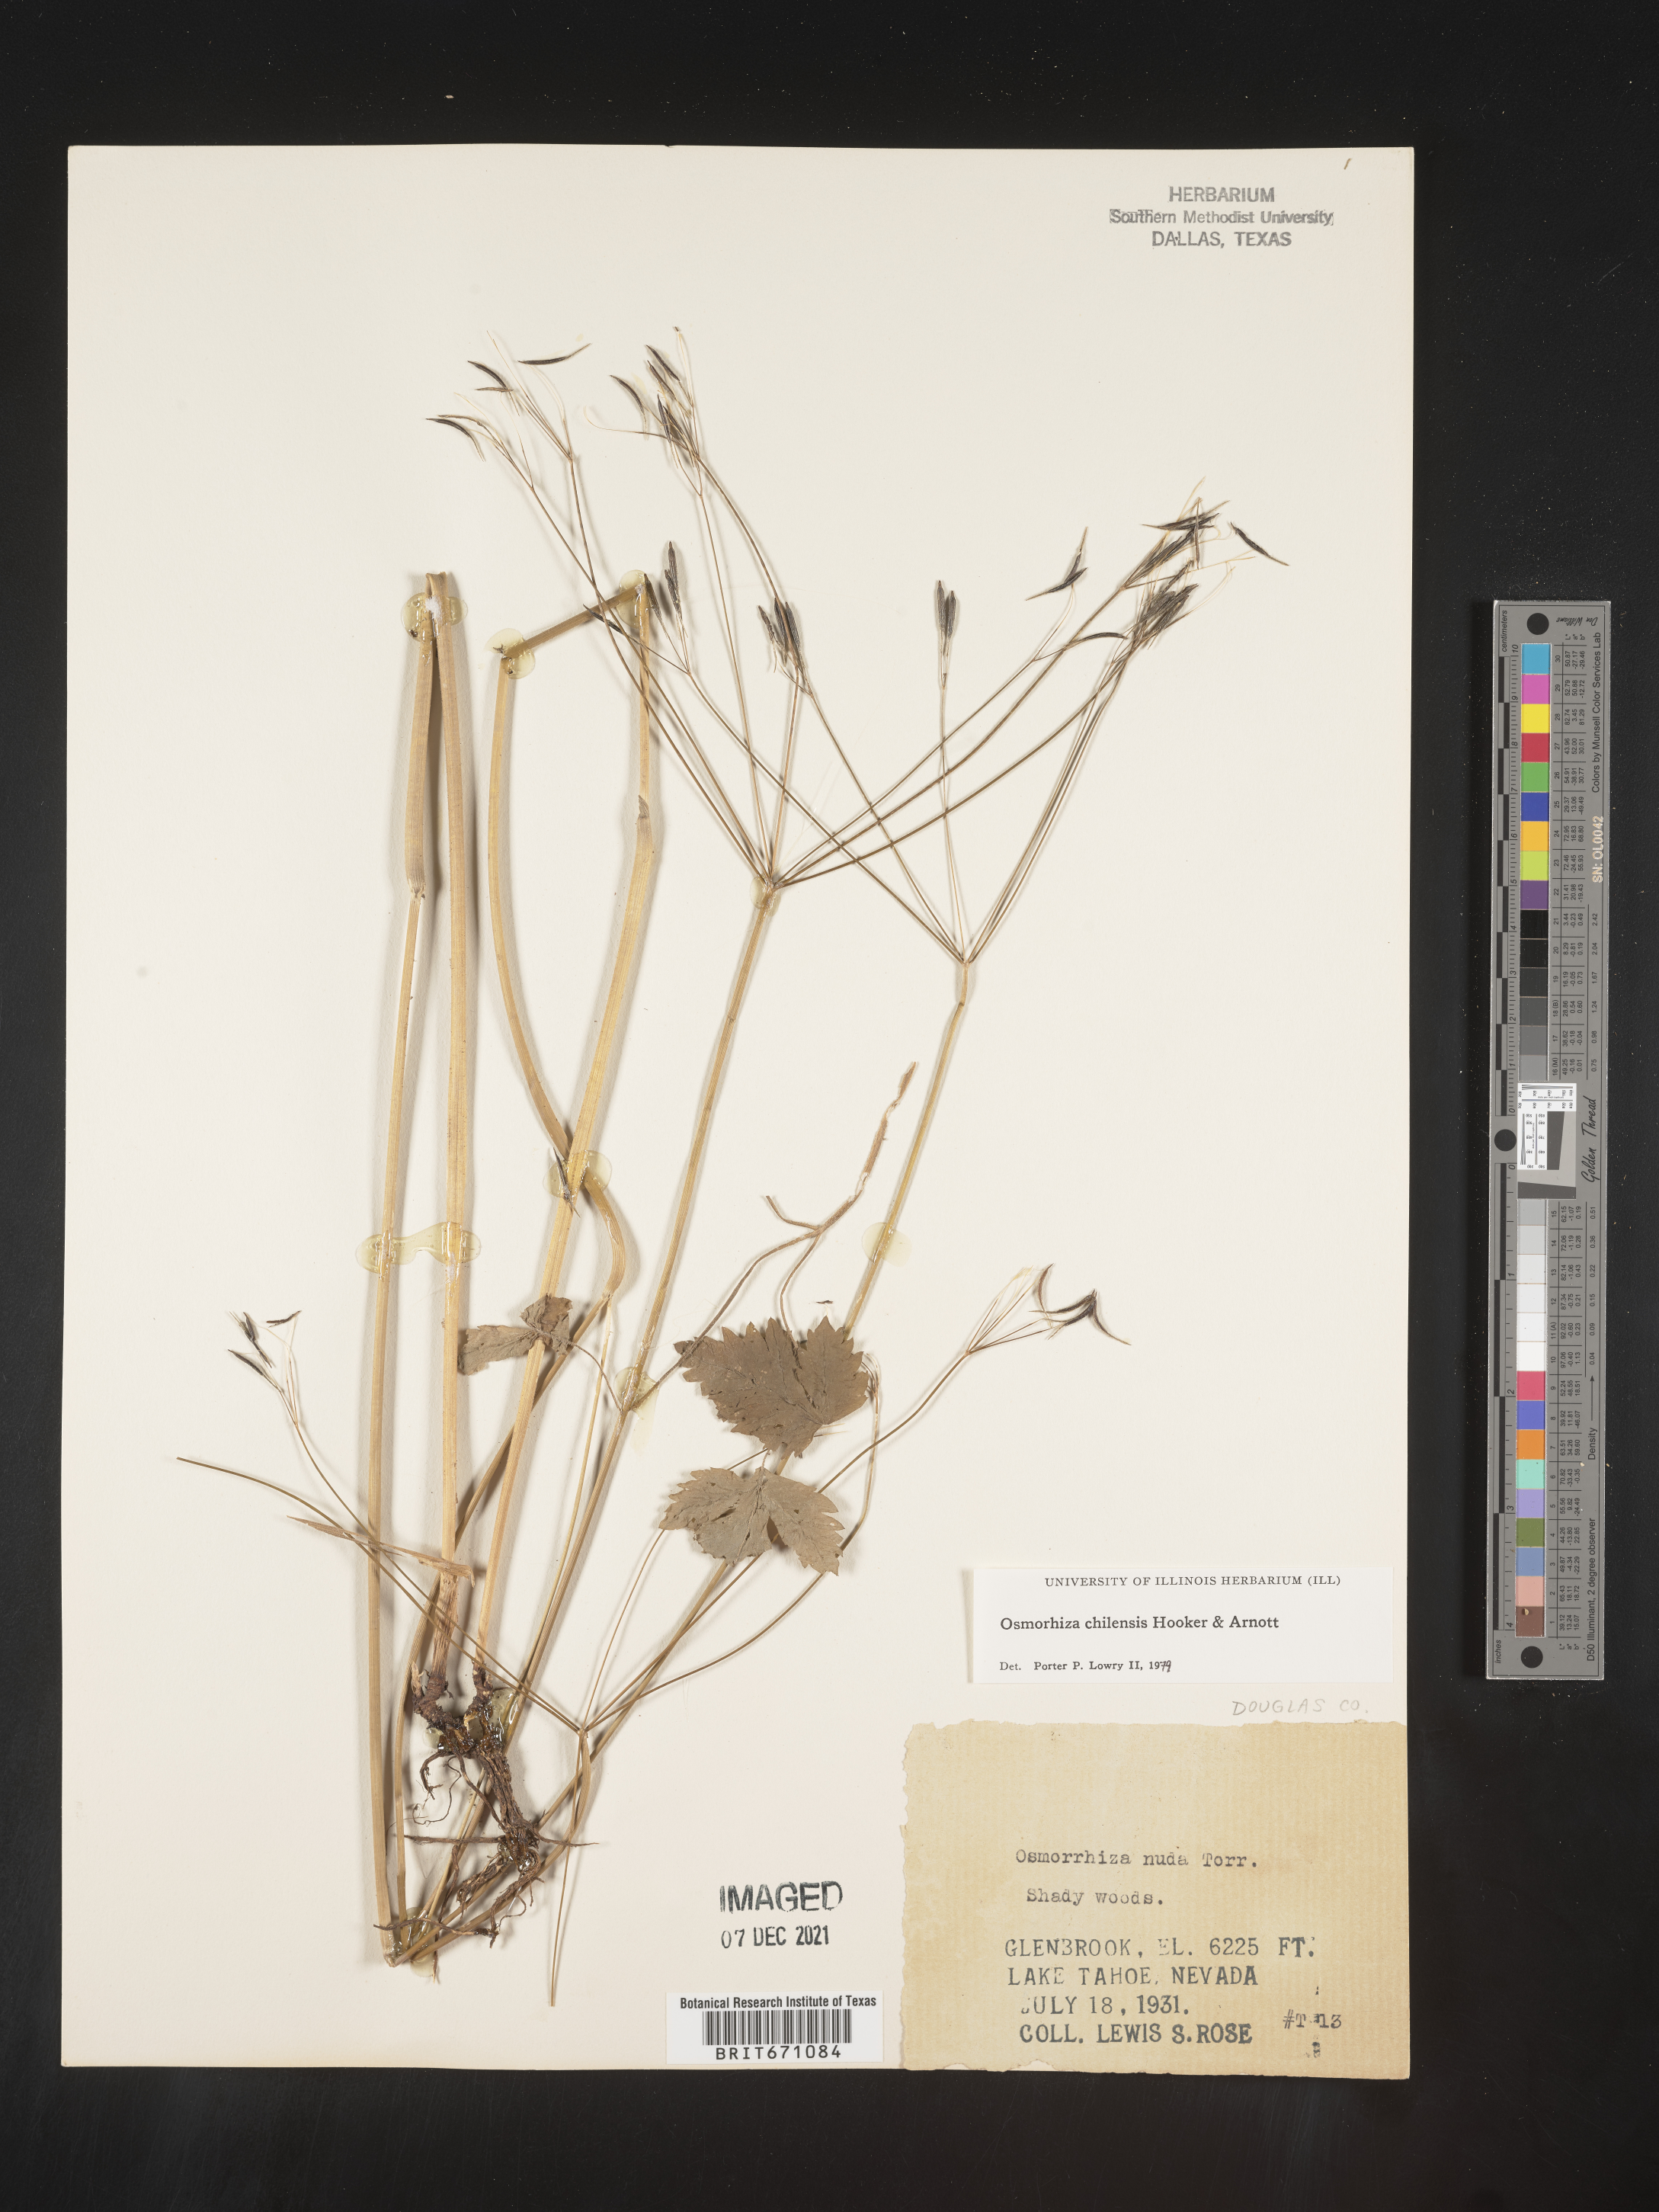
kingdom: Plantae
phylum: Tracheophyta
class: Magnoliopsida
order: Apiales
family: Apiaceae
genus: Osmorhiza
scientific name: Osmorhiza berteroi
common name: Mountain sweet cicely
